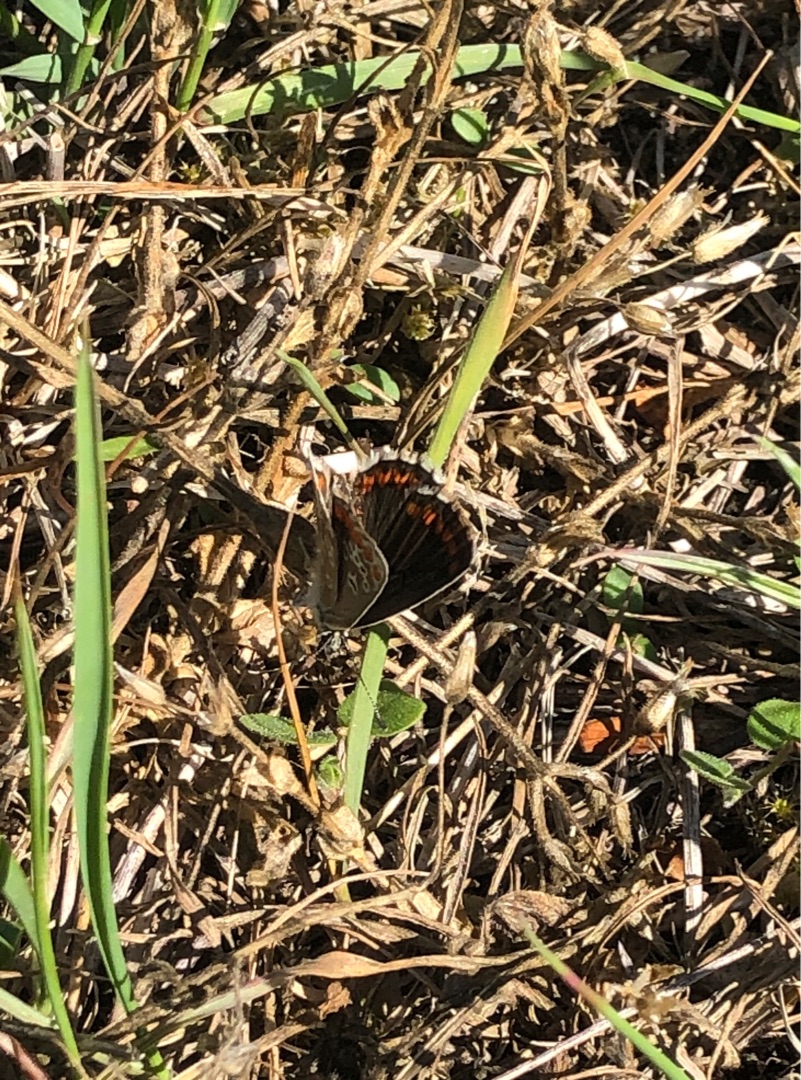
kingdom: Animalia
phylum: Arthropoda
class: Insecta
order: Lepidoptera
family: Lycaenidae
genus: Aricia
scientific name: Aricia agestis
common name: Rødplettet blåfugl
